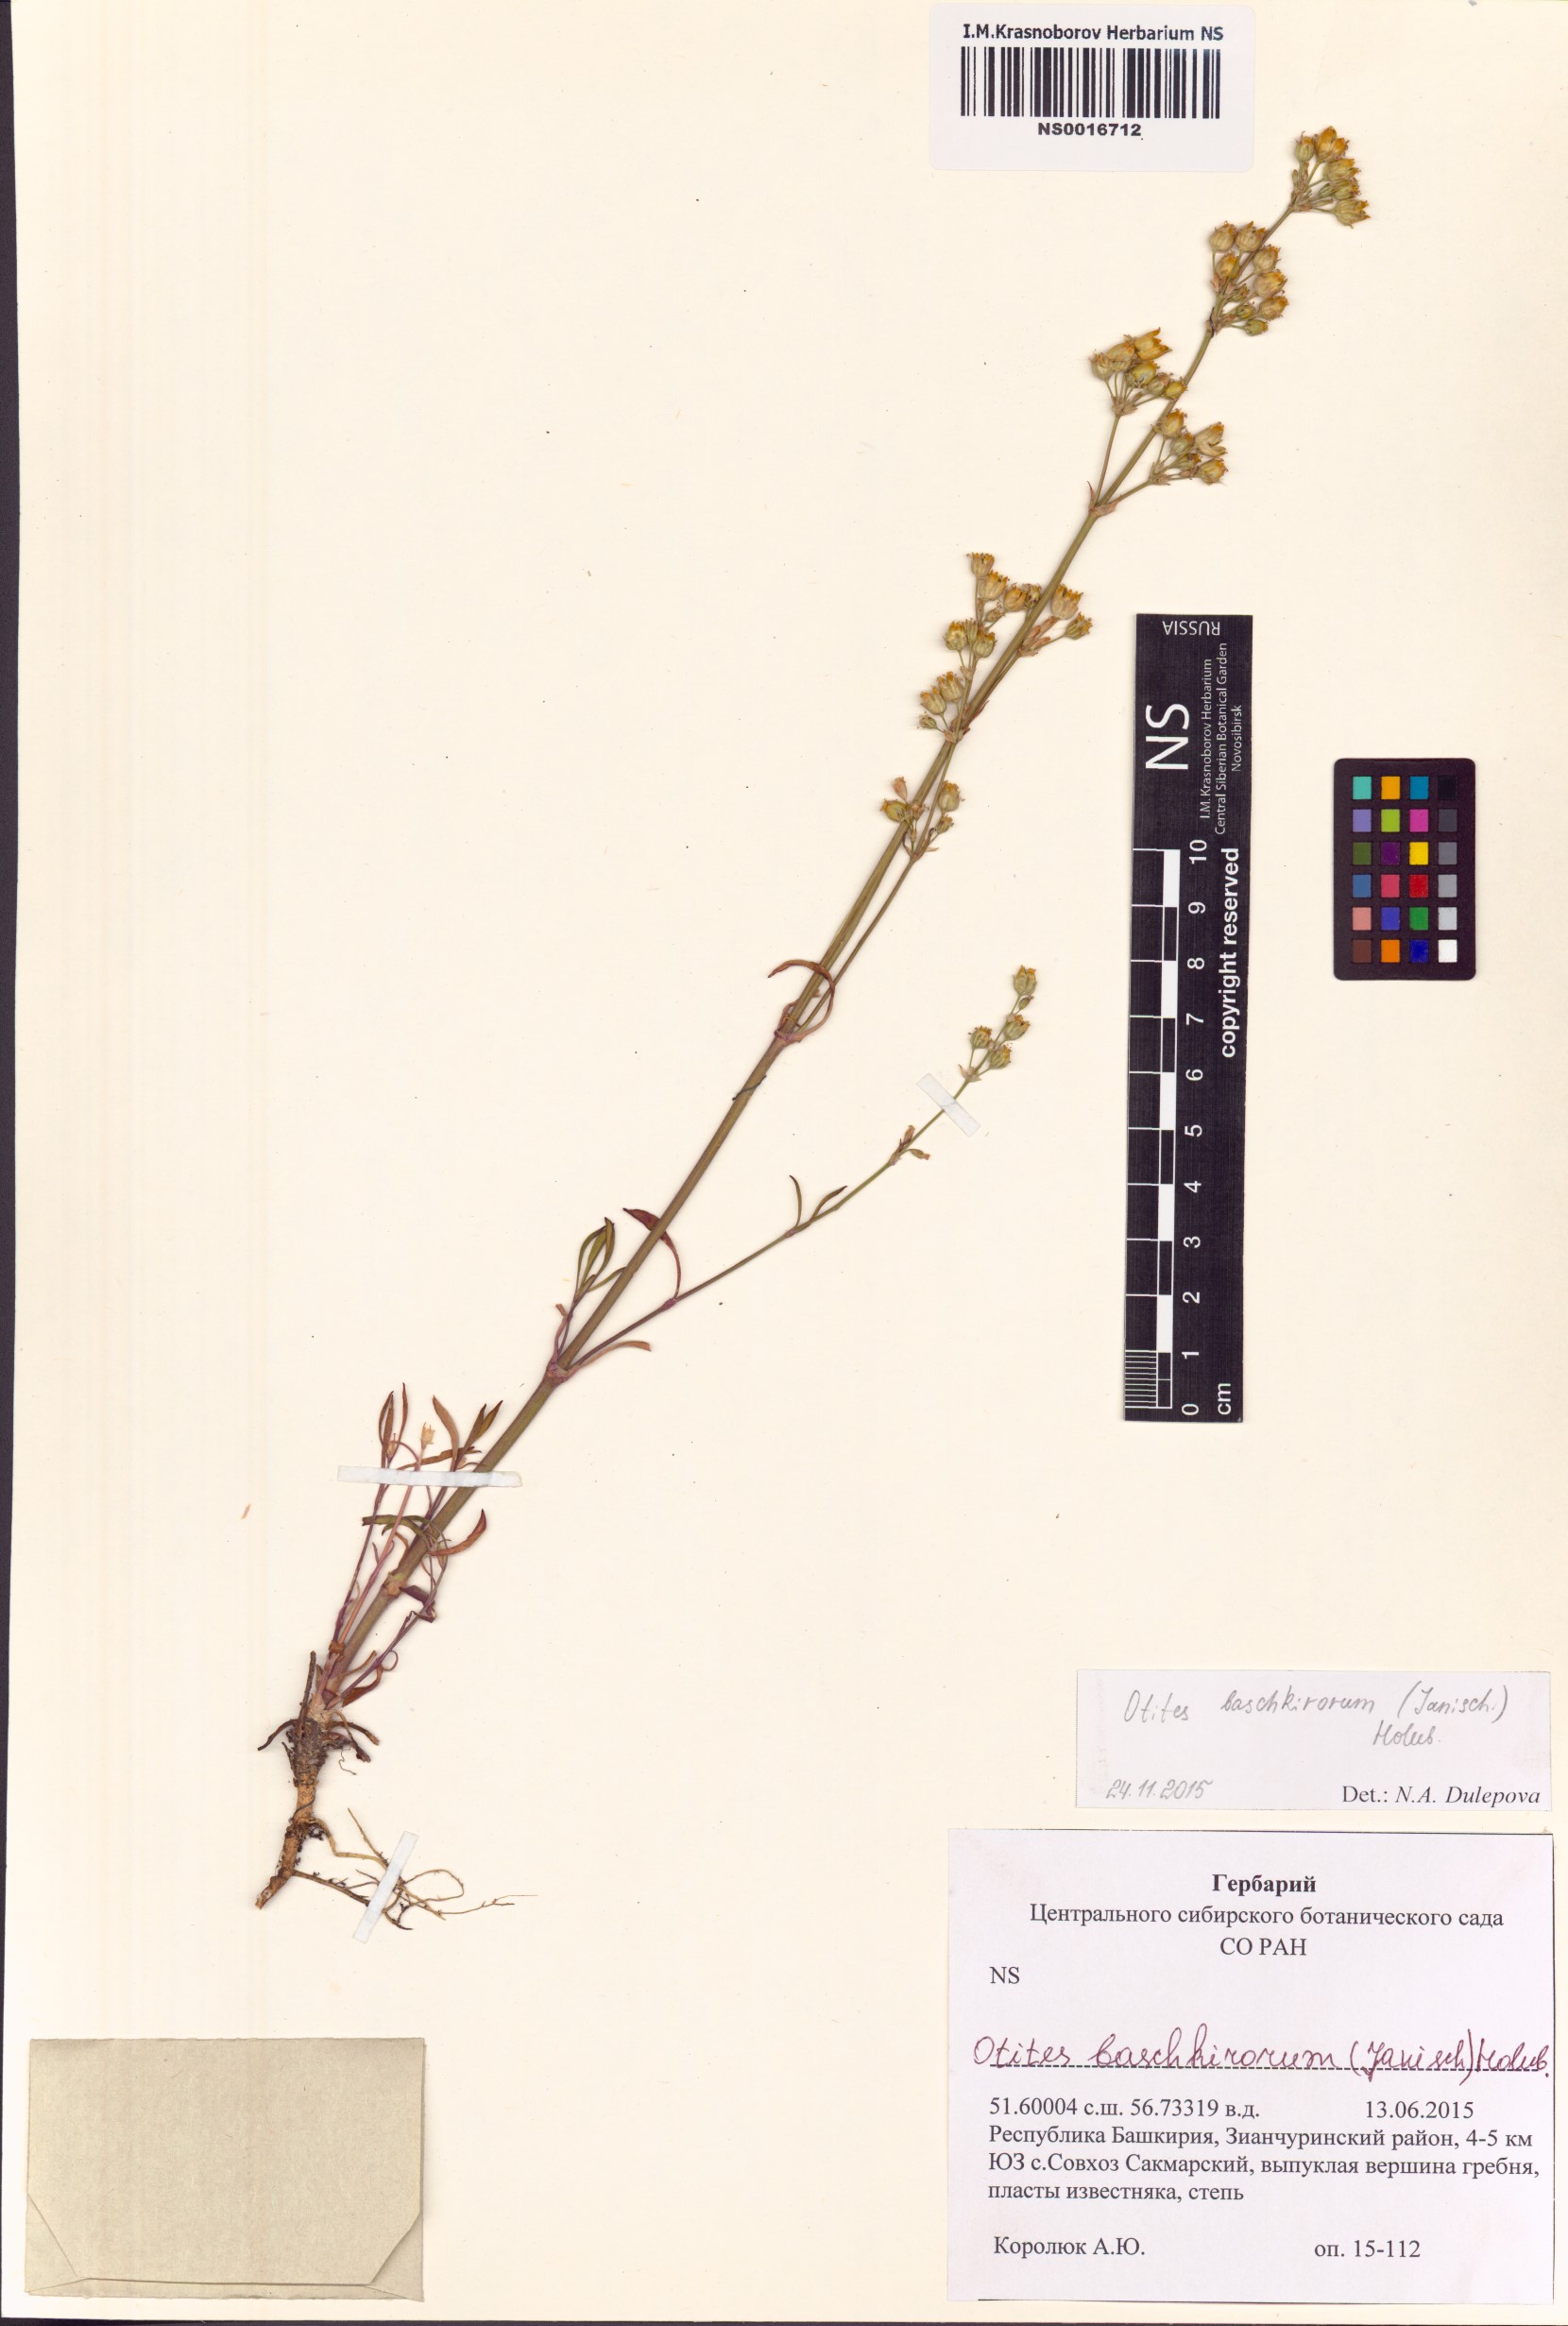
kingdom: Plantae
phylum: Tracheophyta
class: Magnoliopsida
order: Caryophyllales
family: Caryophyllaceae
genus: Silene
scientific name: Silene baschkirorum
